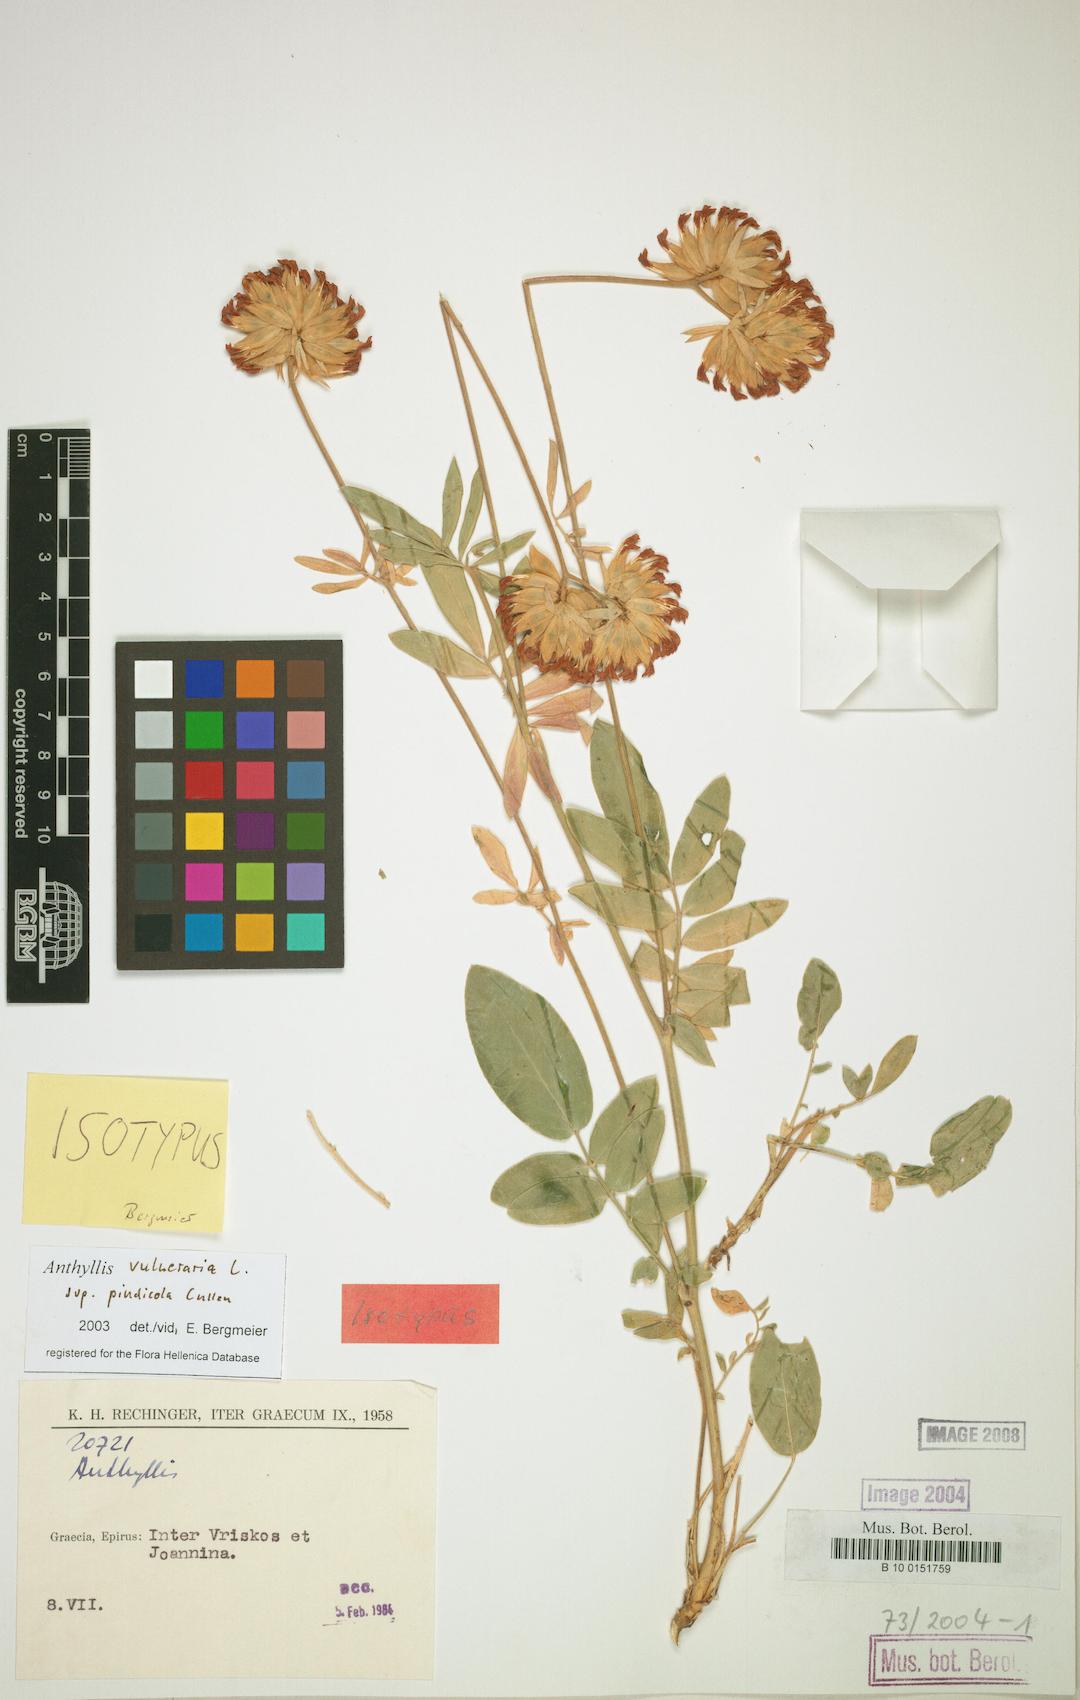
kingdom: Plantae
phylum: Tracheophyta
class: Magnoliopsida
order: Fabales
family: Fabaceae
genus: Anthyllis
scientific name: Anthyllis vulneraria
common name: Kidney vetch
